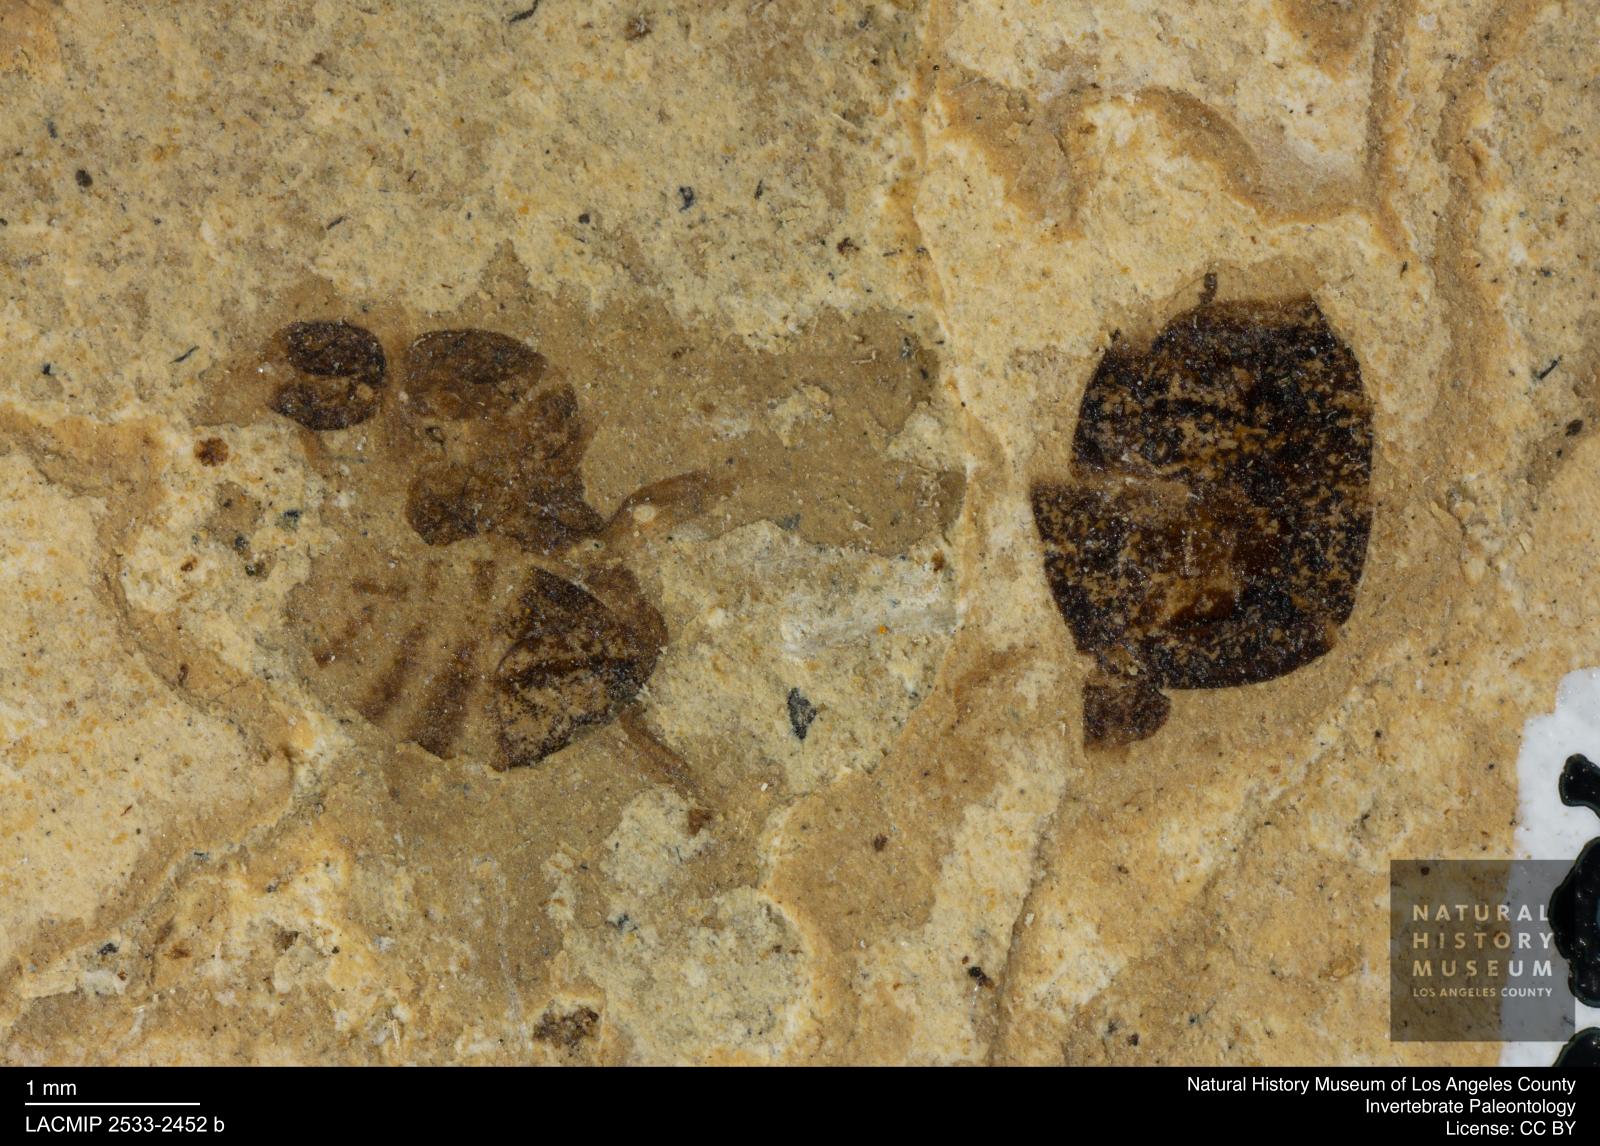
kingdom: Animalia
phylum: Arthropoda
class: Insecta
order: Hymenoptera
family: Formicidae
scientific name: Formicidae
